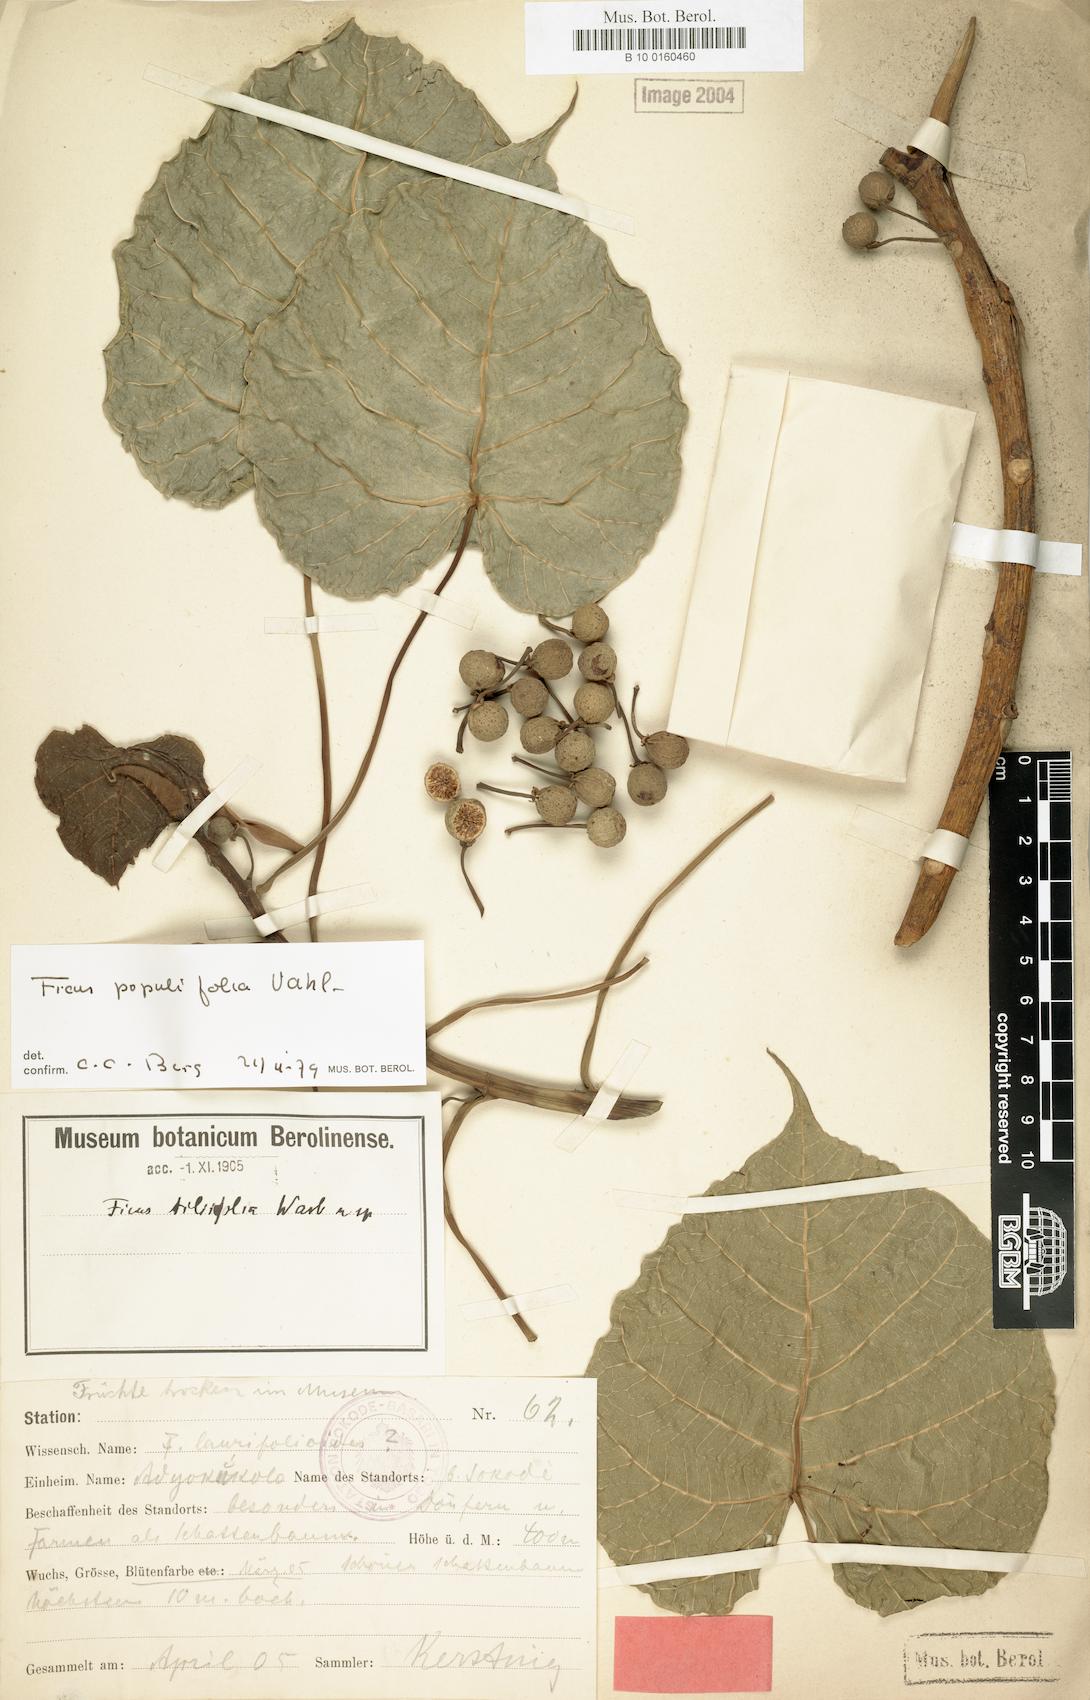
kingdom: Plantae
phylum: Tracheophyta
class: Magnoliopsida
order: Rosales
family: Moraceae
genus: Ficus
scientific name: Ficus populifolia
